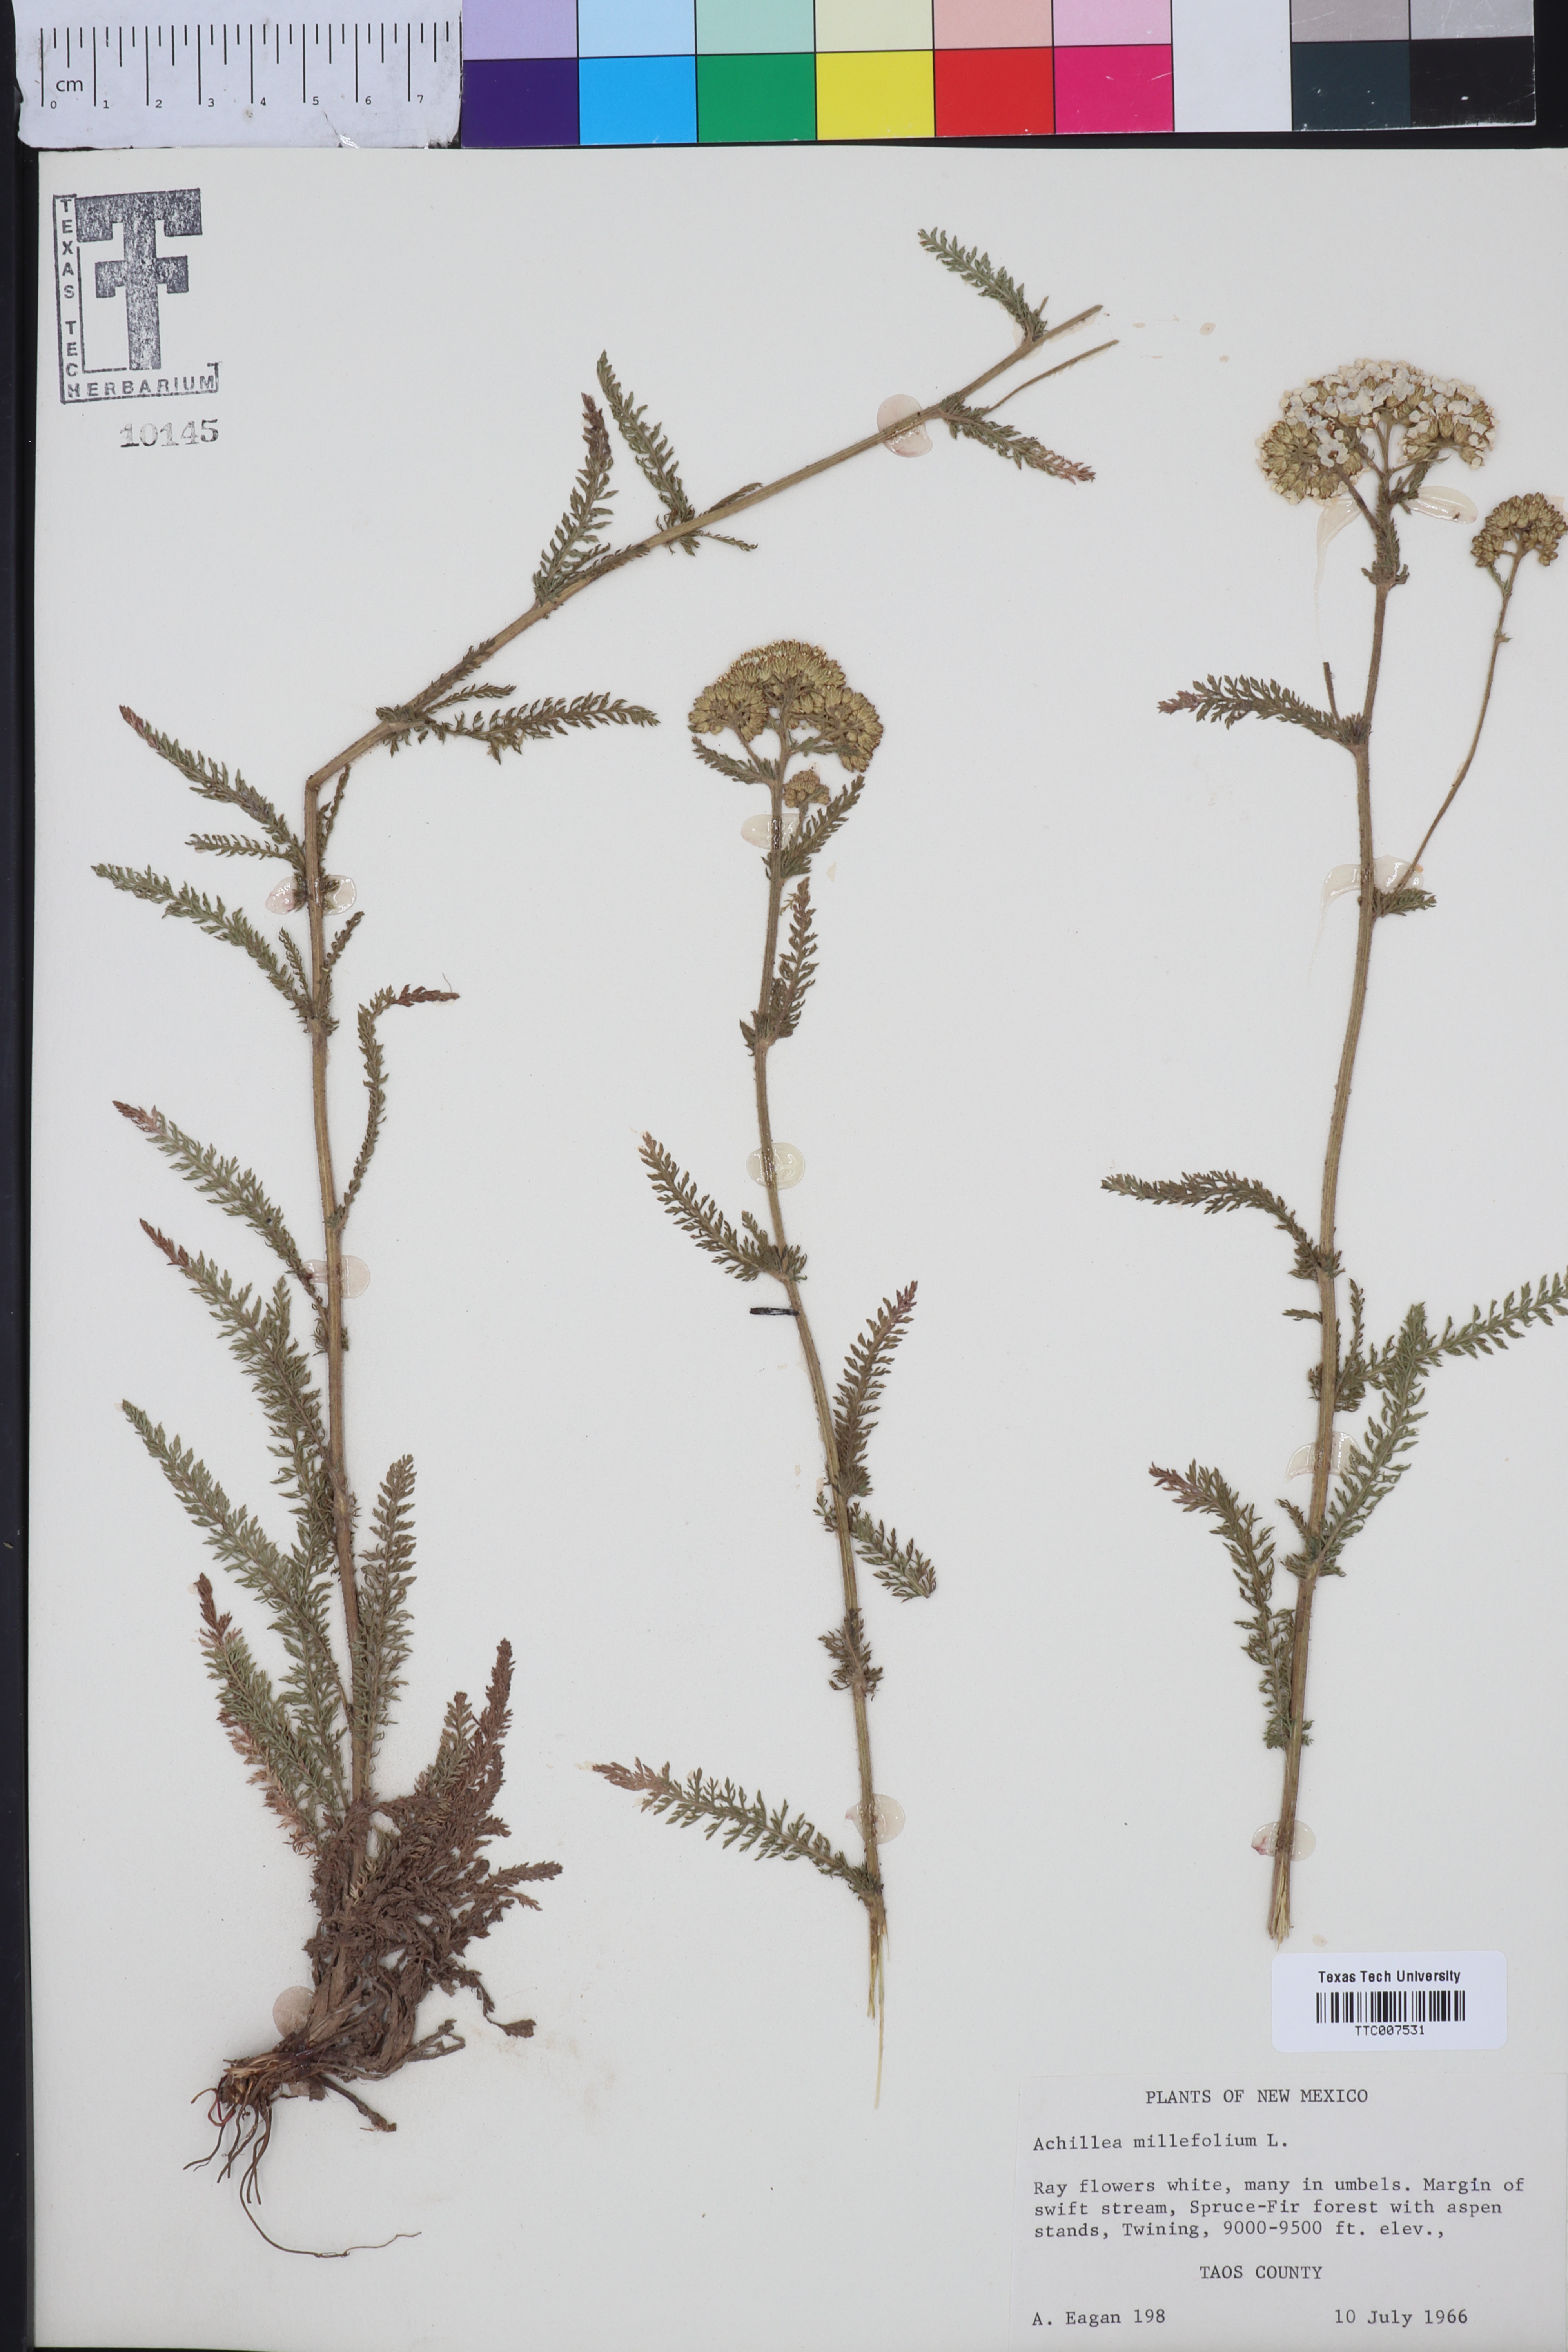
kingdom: Plantae
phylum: Tracheophyta
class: Magnoliopsida
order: Asterales
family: Asteraceae
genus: Achillea
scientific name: Achillea millefolium
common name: Yarrow
